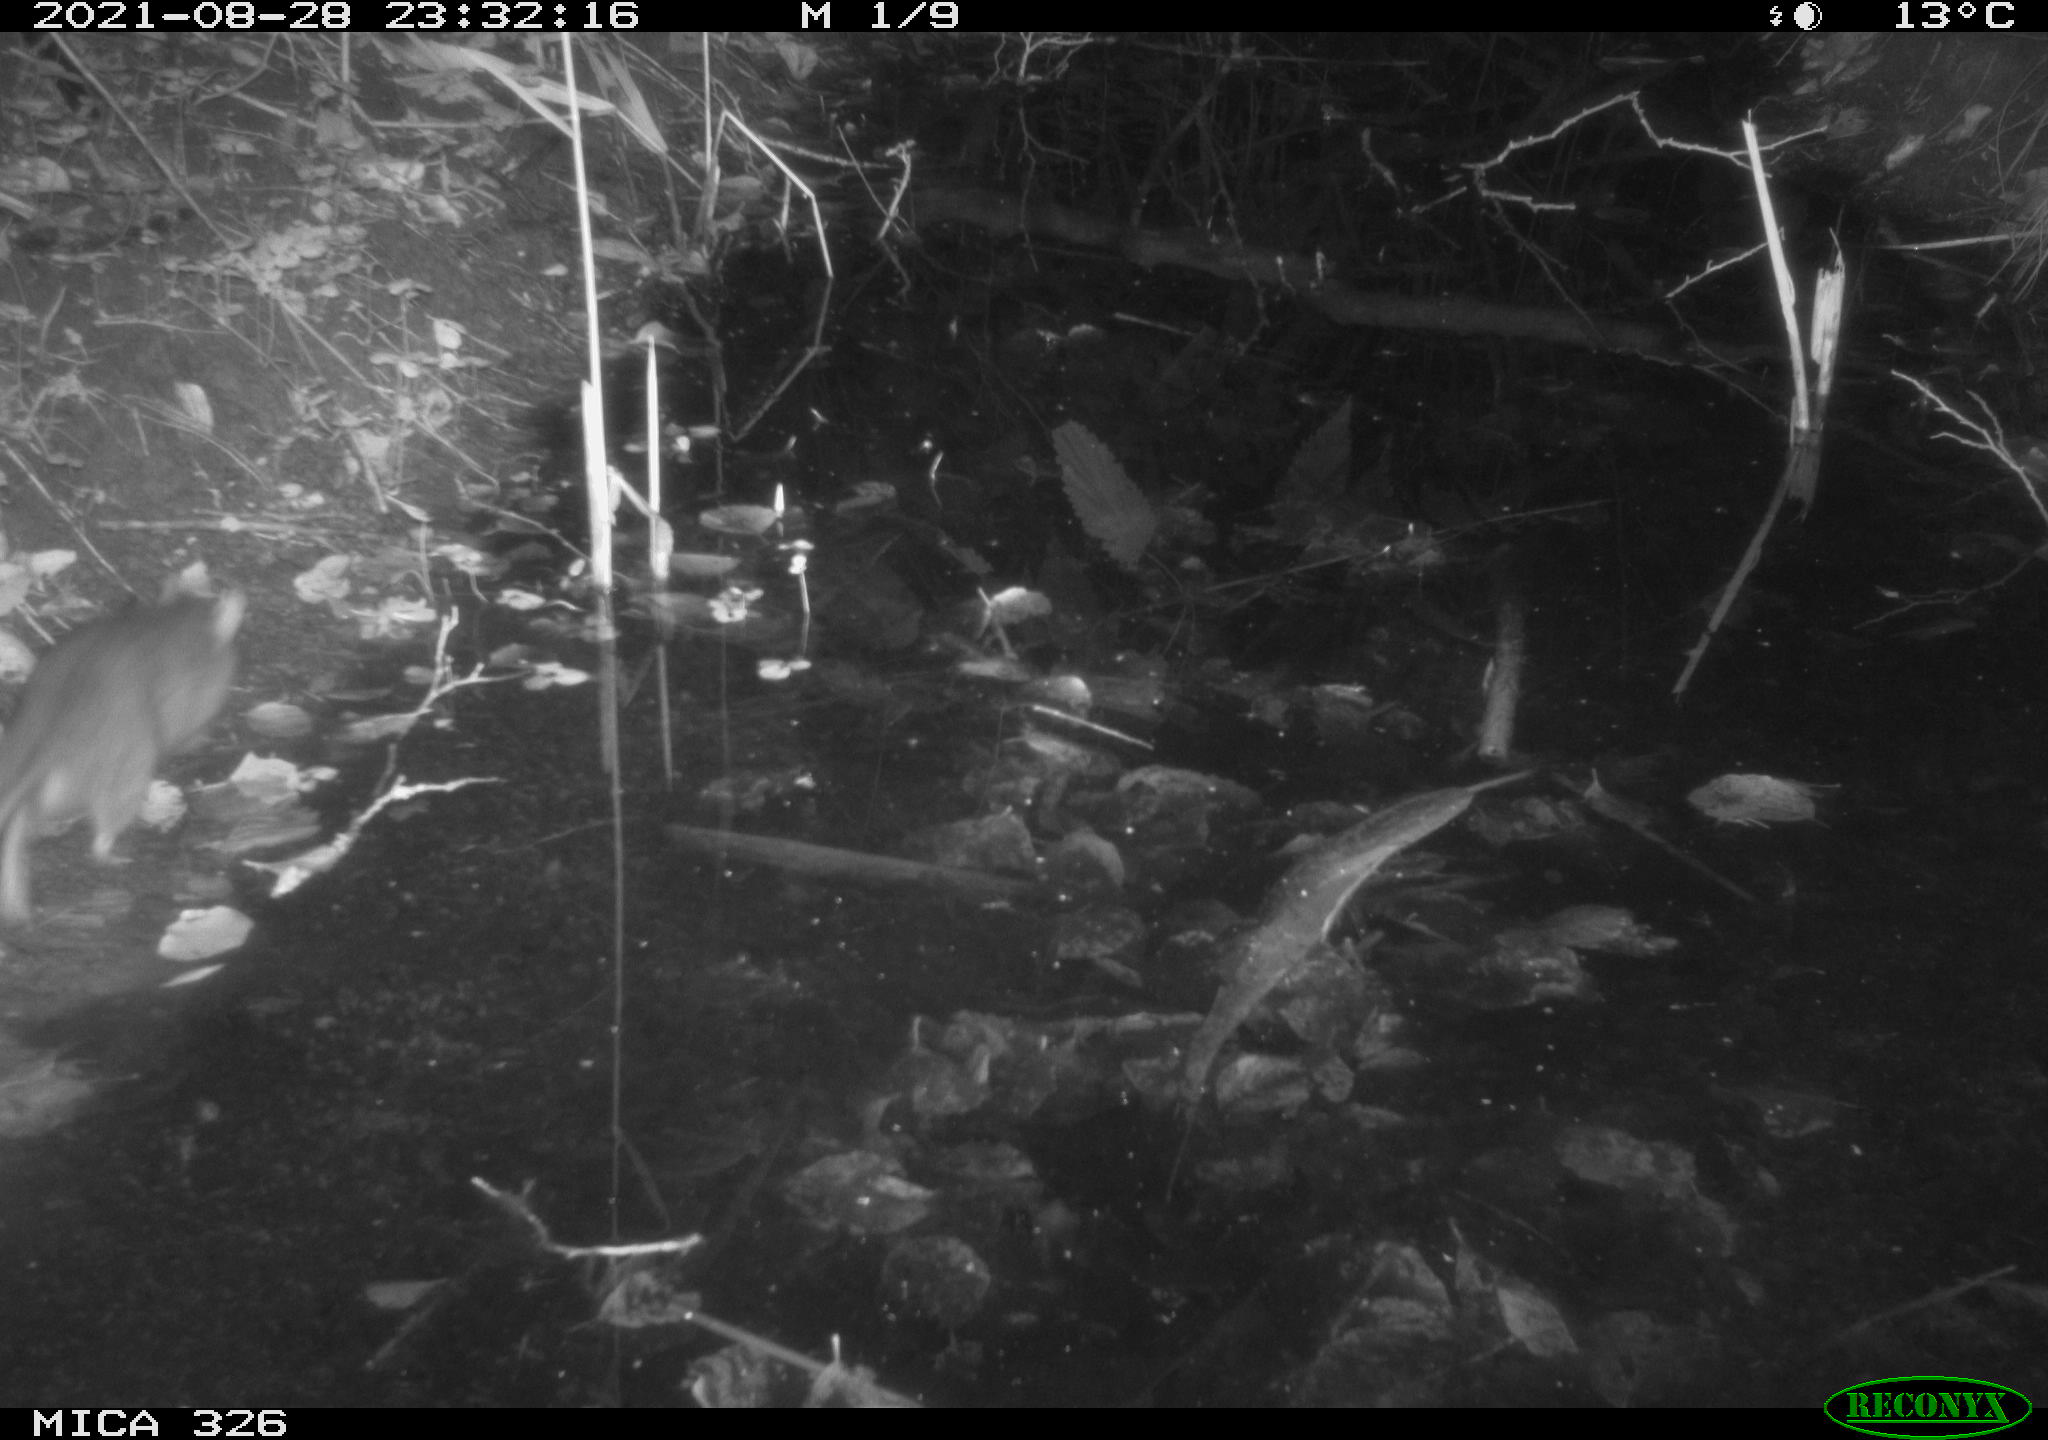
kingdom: Animalia
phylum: Chordata
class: Mammalia
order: Rodentia
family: Muridae
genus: Rattus
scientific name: Rattus norvegicus
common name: Brown rat
